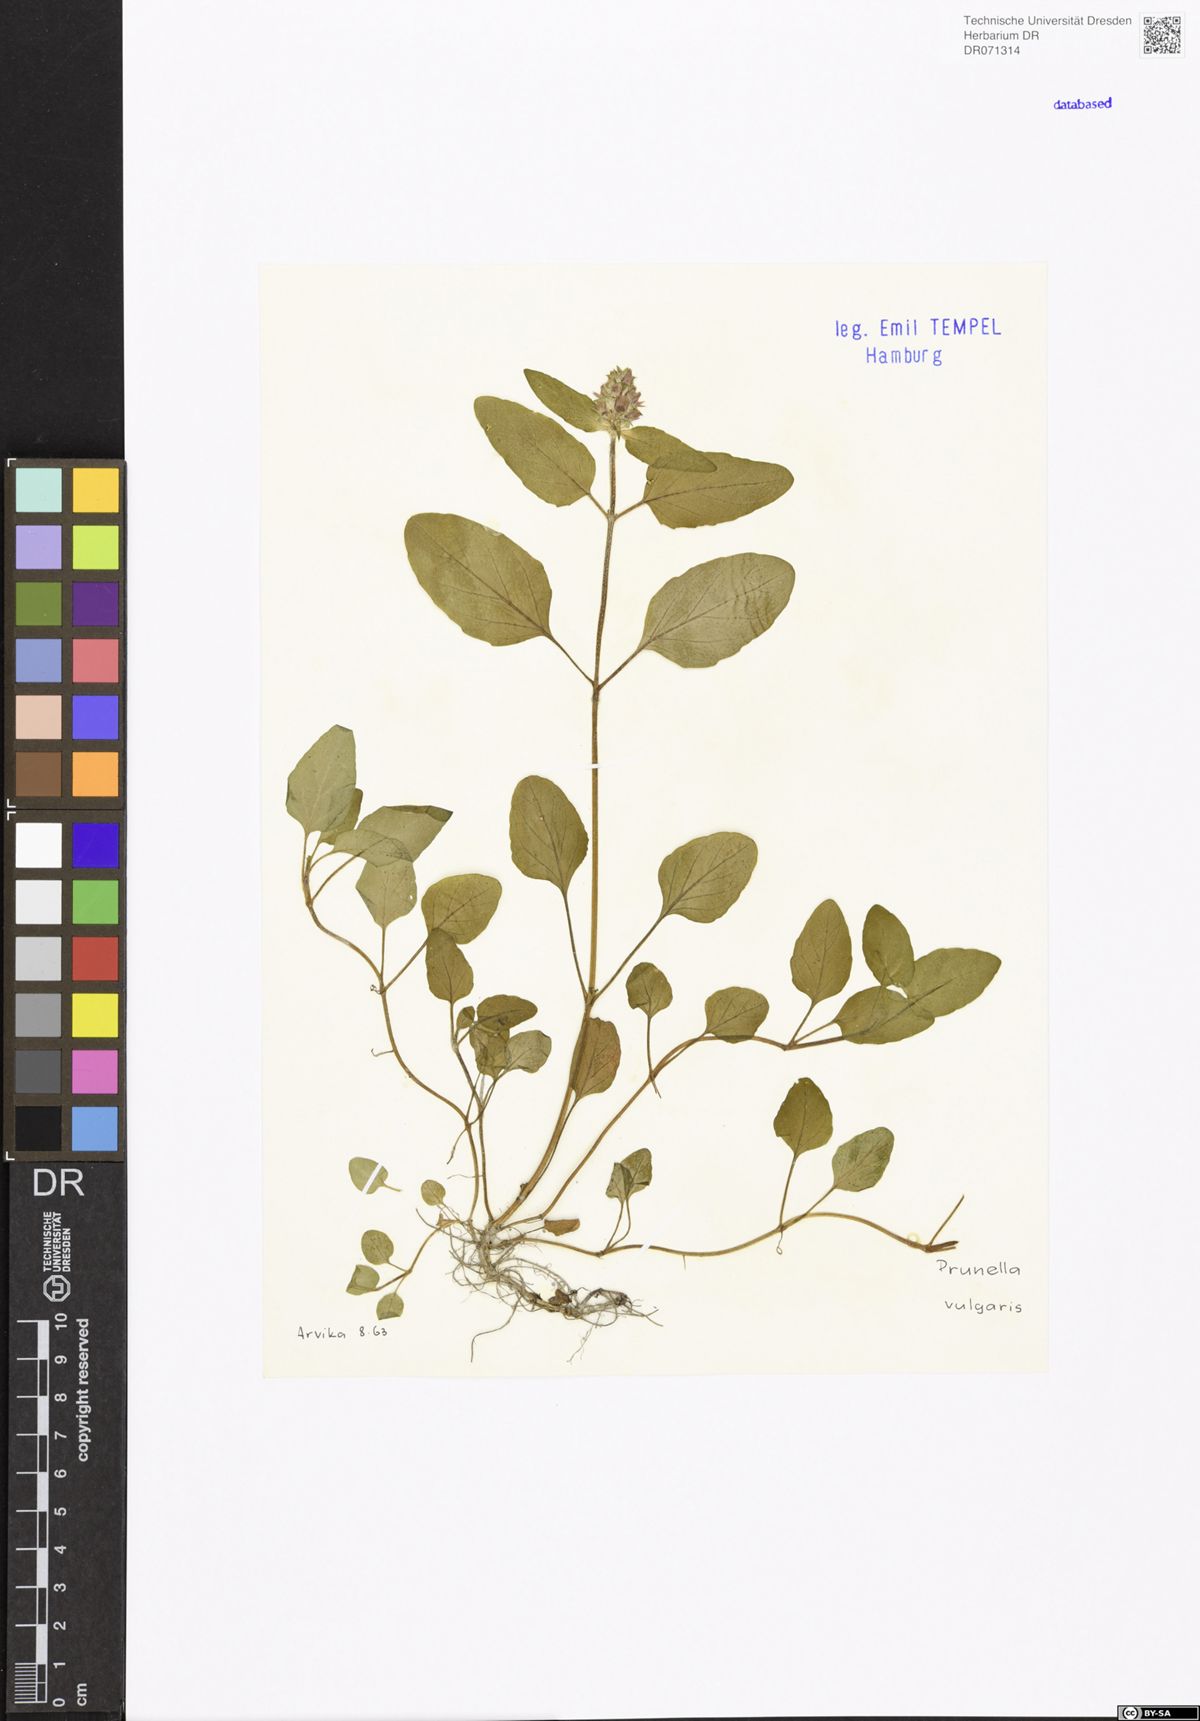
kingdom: Plantae
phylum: Tracheophyta
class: Magnoliopsida
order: Lamiales
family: Lamiaceae
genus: Prunella
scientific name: Prunella vulgaris
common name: Heal-all
